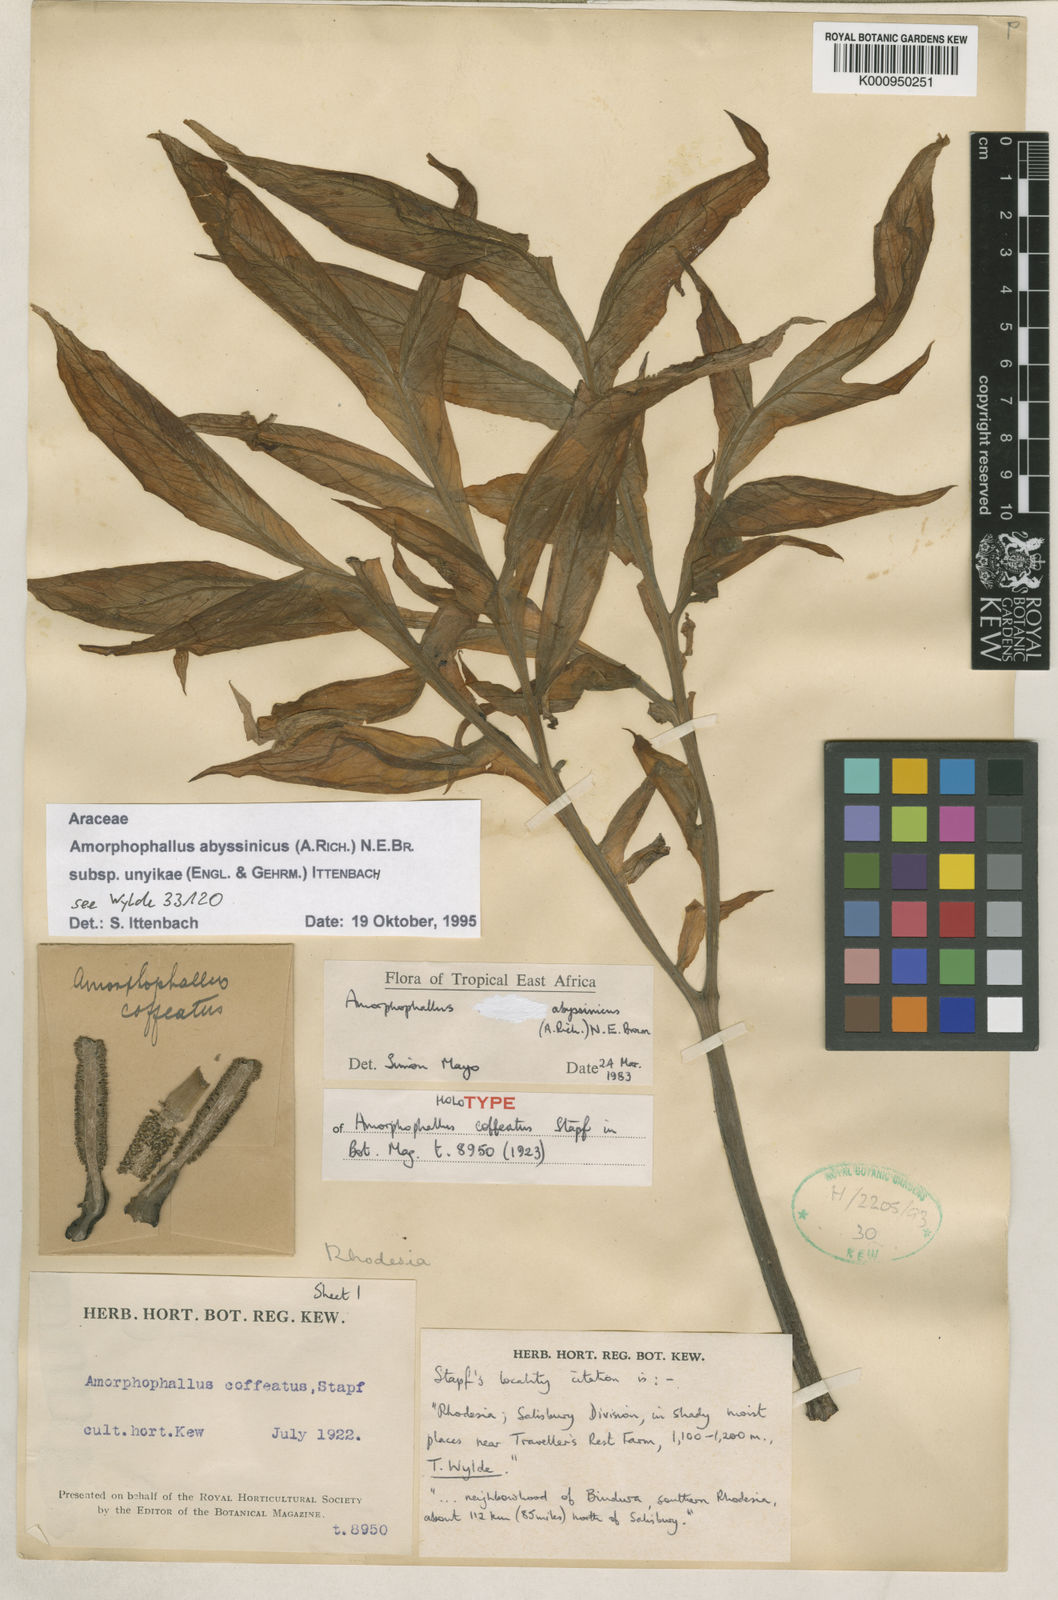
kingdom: Plantae
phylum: Tracheophyta
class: Liliopsida
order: Alismatales
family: Araceae
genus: Amorphophallus
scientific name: Amorphophallus abyssinicus
